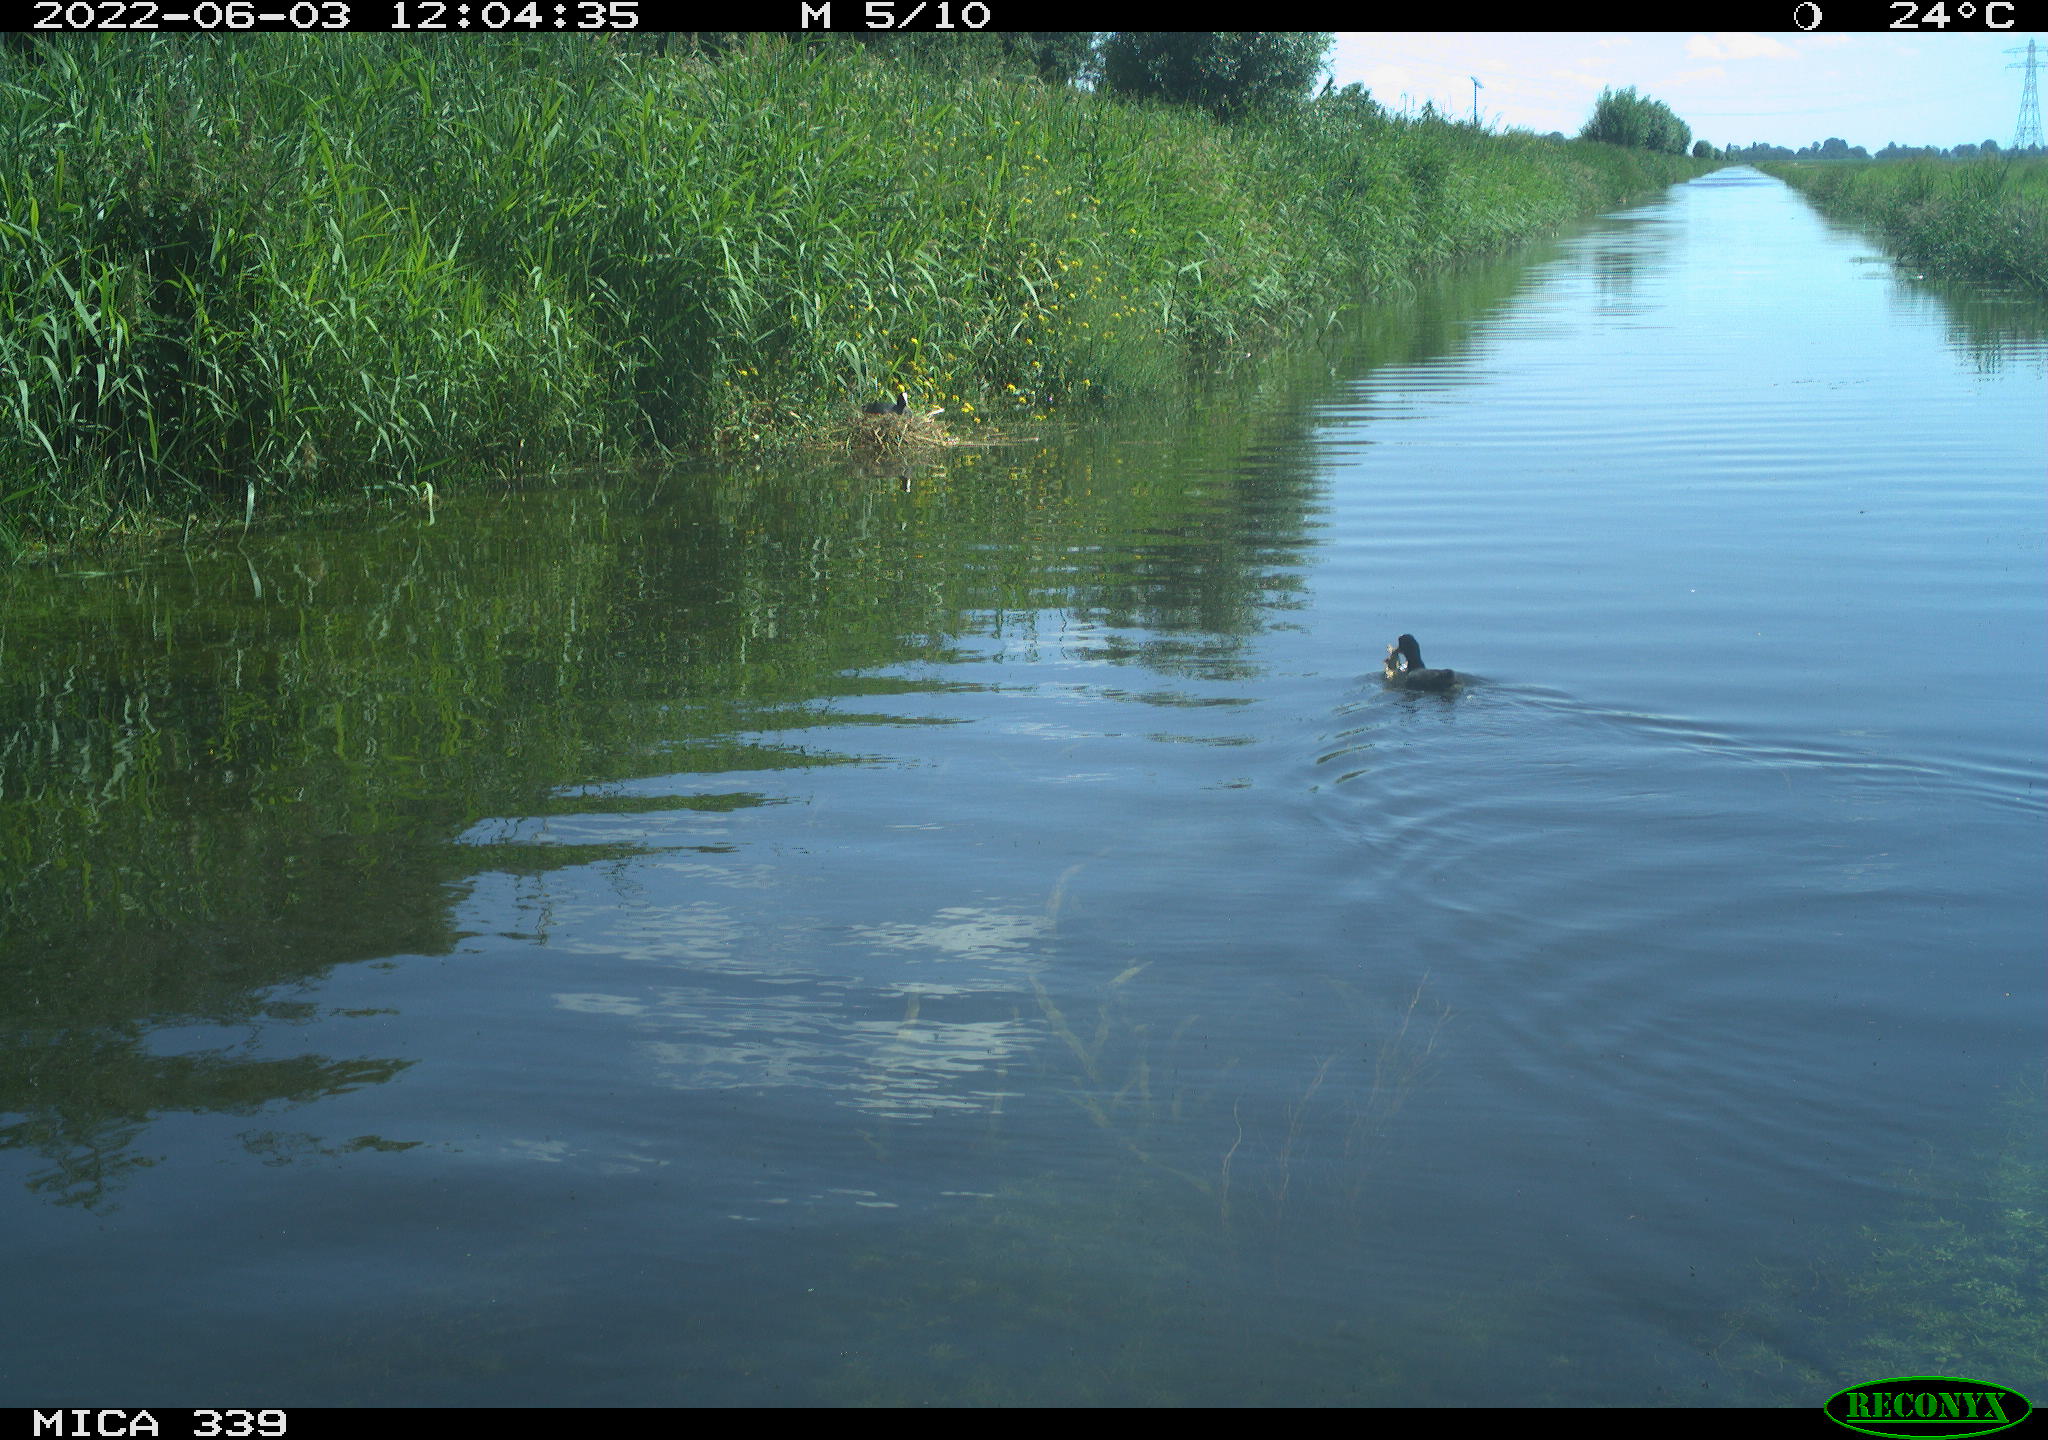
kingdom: Animalia
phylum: Chordata
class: Aves
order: Gruiformes
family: Rallidae
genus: Fulica
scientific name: Fulica atra
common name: Eurasian coot
